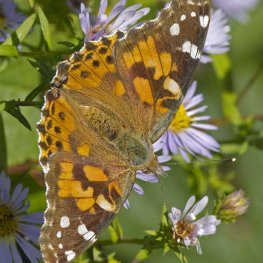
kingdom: Animalia
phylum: Arthropoda
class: Insecta
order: Lepidoptera
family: Nymphalidae
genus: Vanessa
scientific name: Vanessa cardui
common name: Painted Lady
